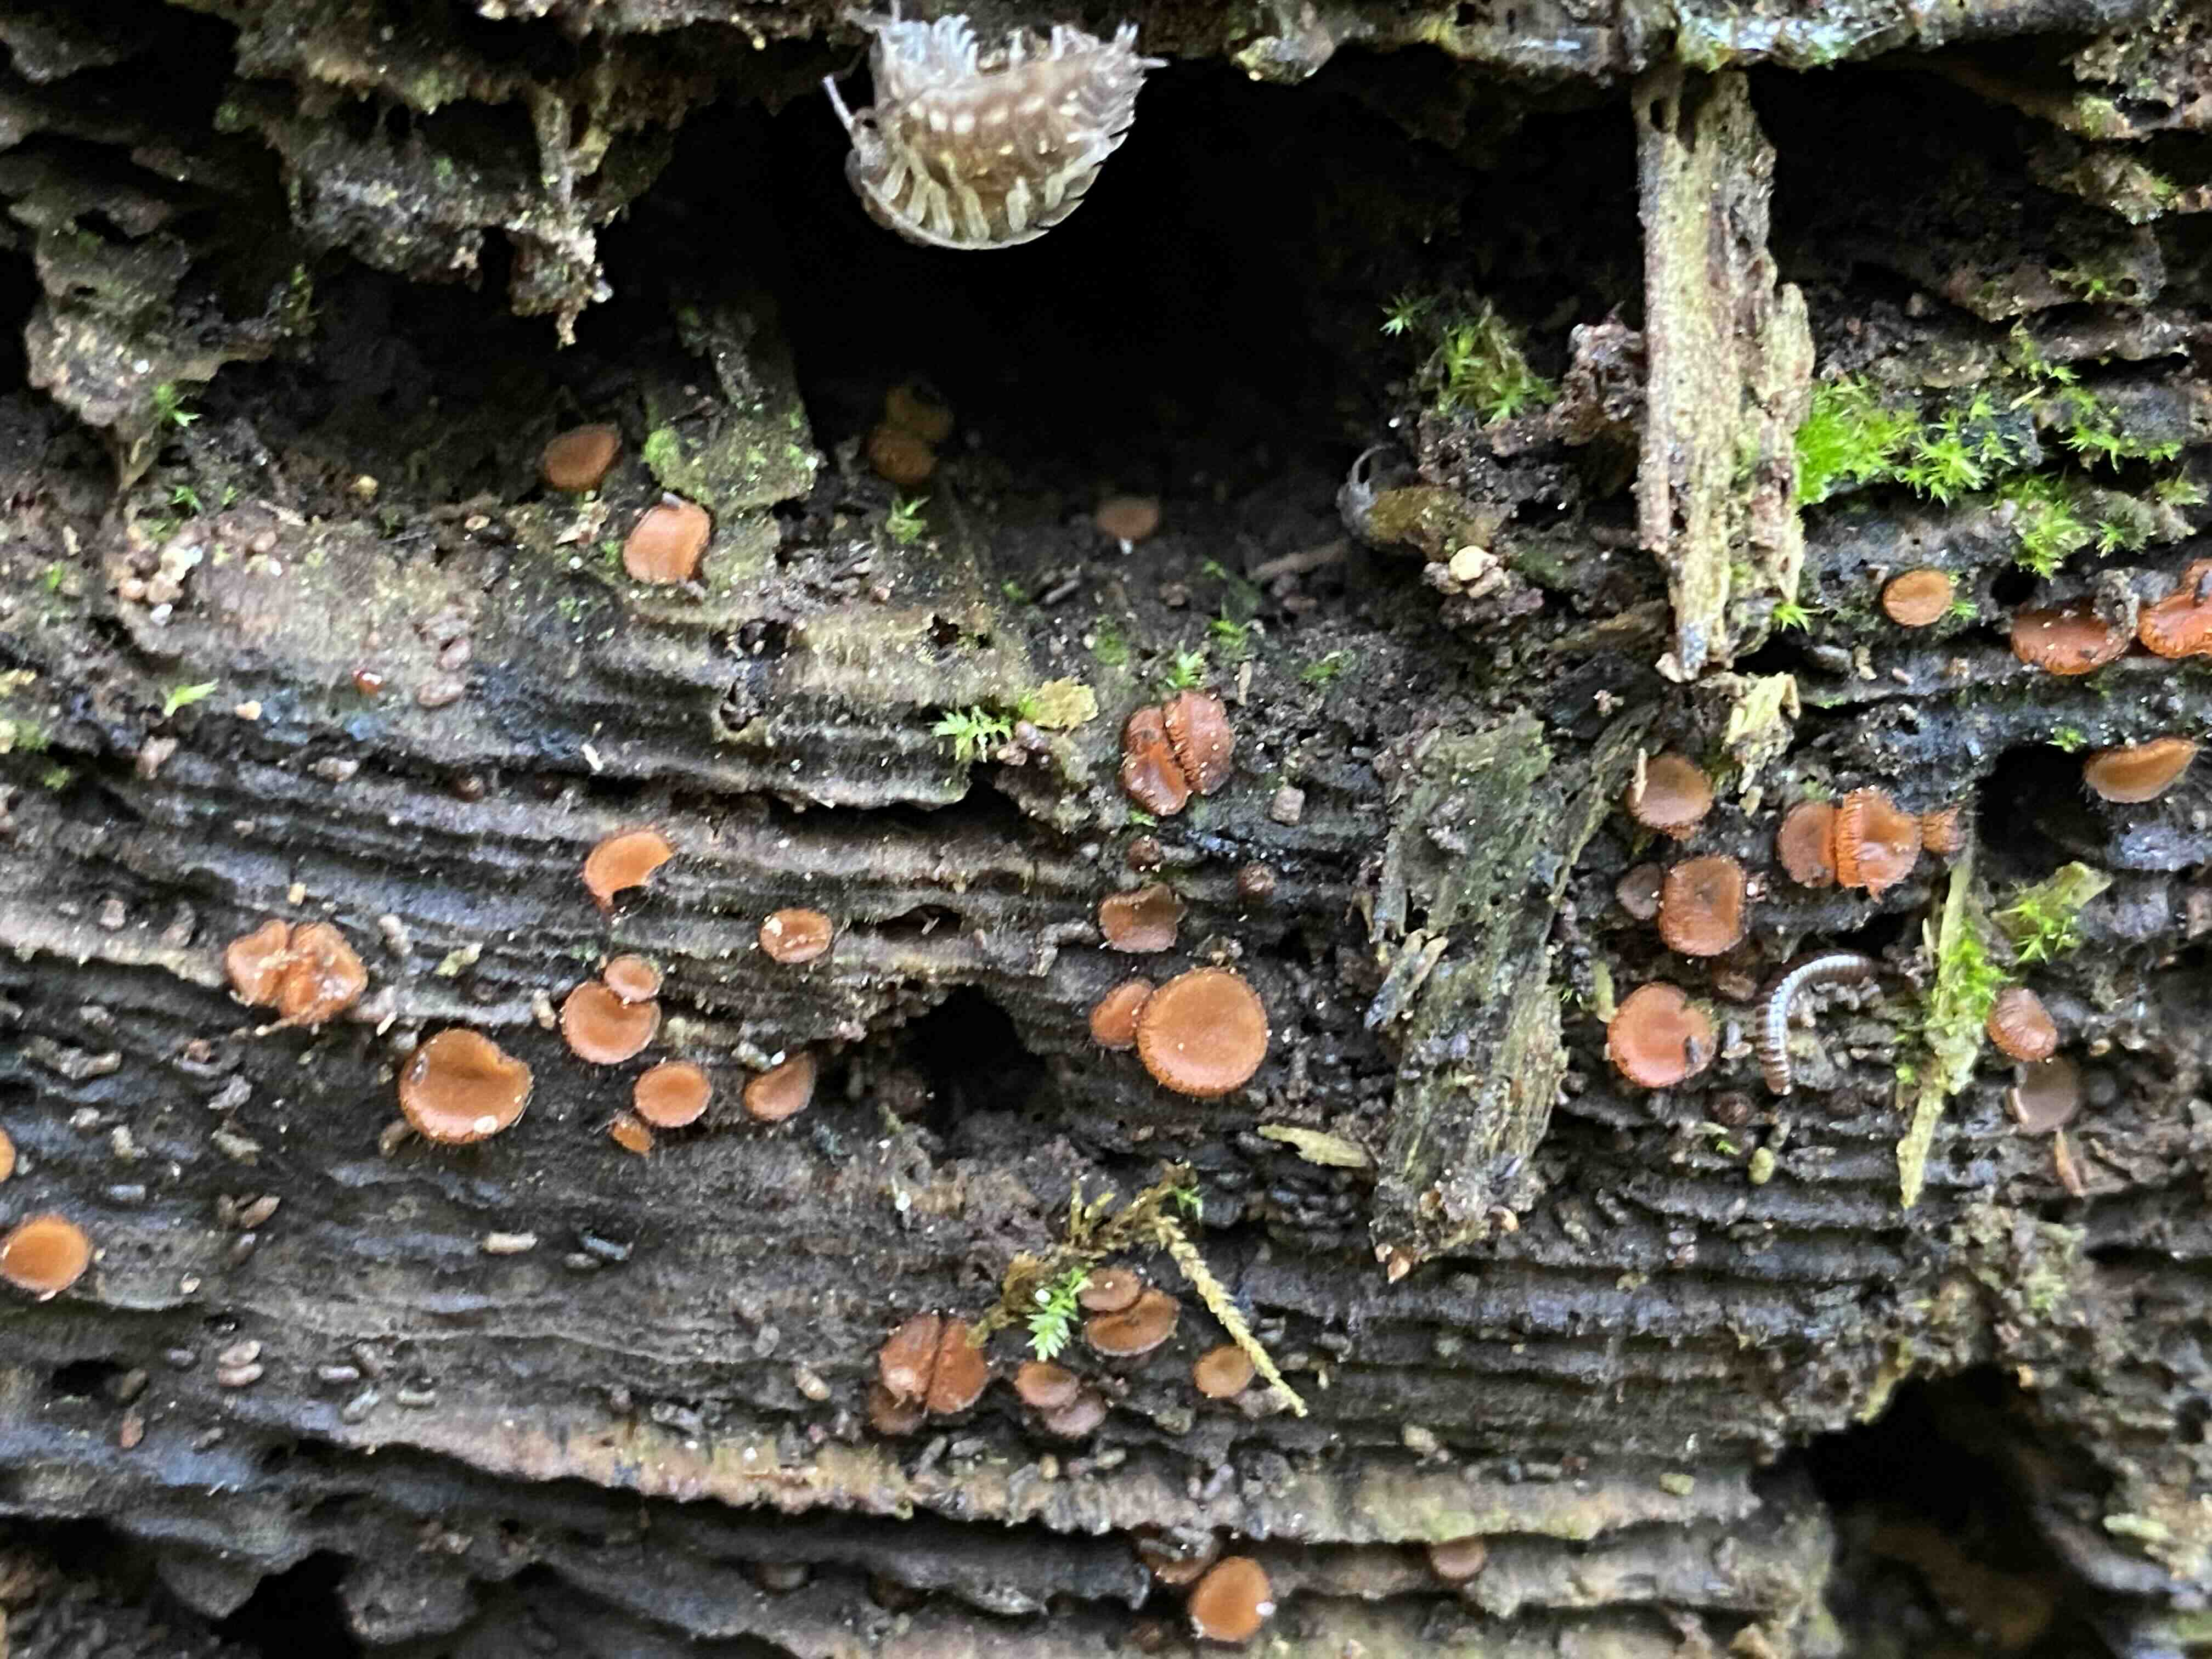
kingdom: Fungi
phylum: Ascomycota
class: Pezizomycetes
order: Pezizales
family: Pyronemataceae
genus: Scutellinia
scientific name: Scutellinia
